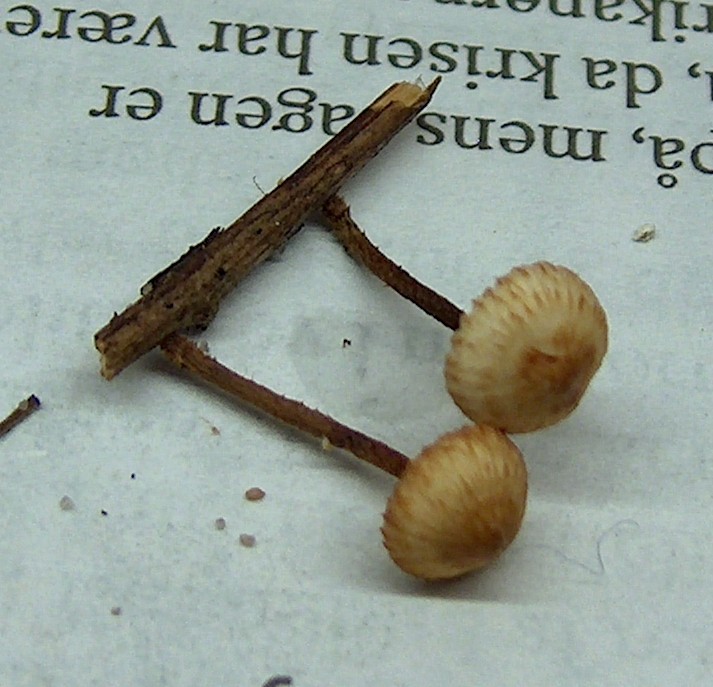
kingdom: Fungi
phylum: Basidiomycota
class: Agaricomycetes
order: Agaricales
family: Marasmiaceae
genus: Crinipellis
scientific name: Crinipellis scabella
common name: børstefod
